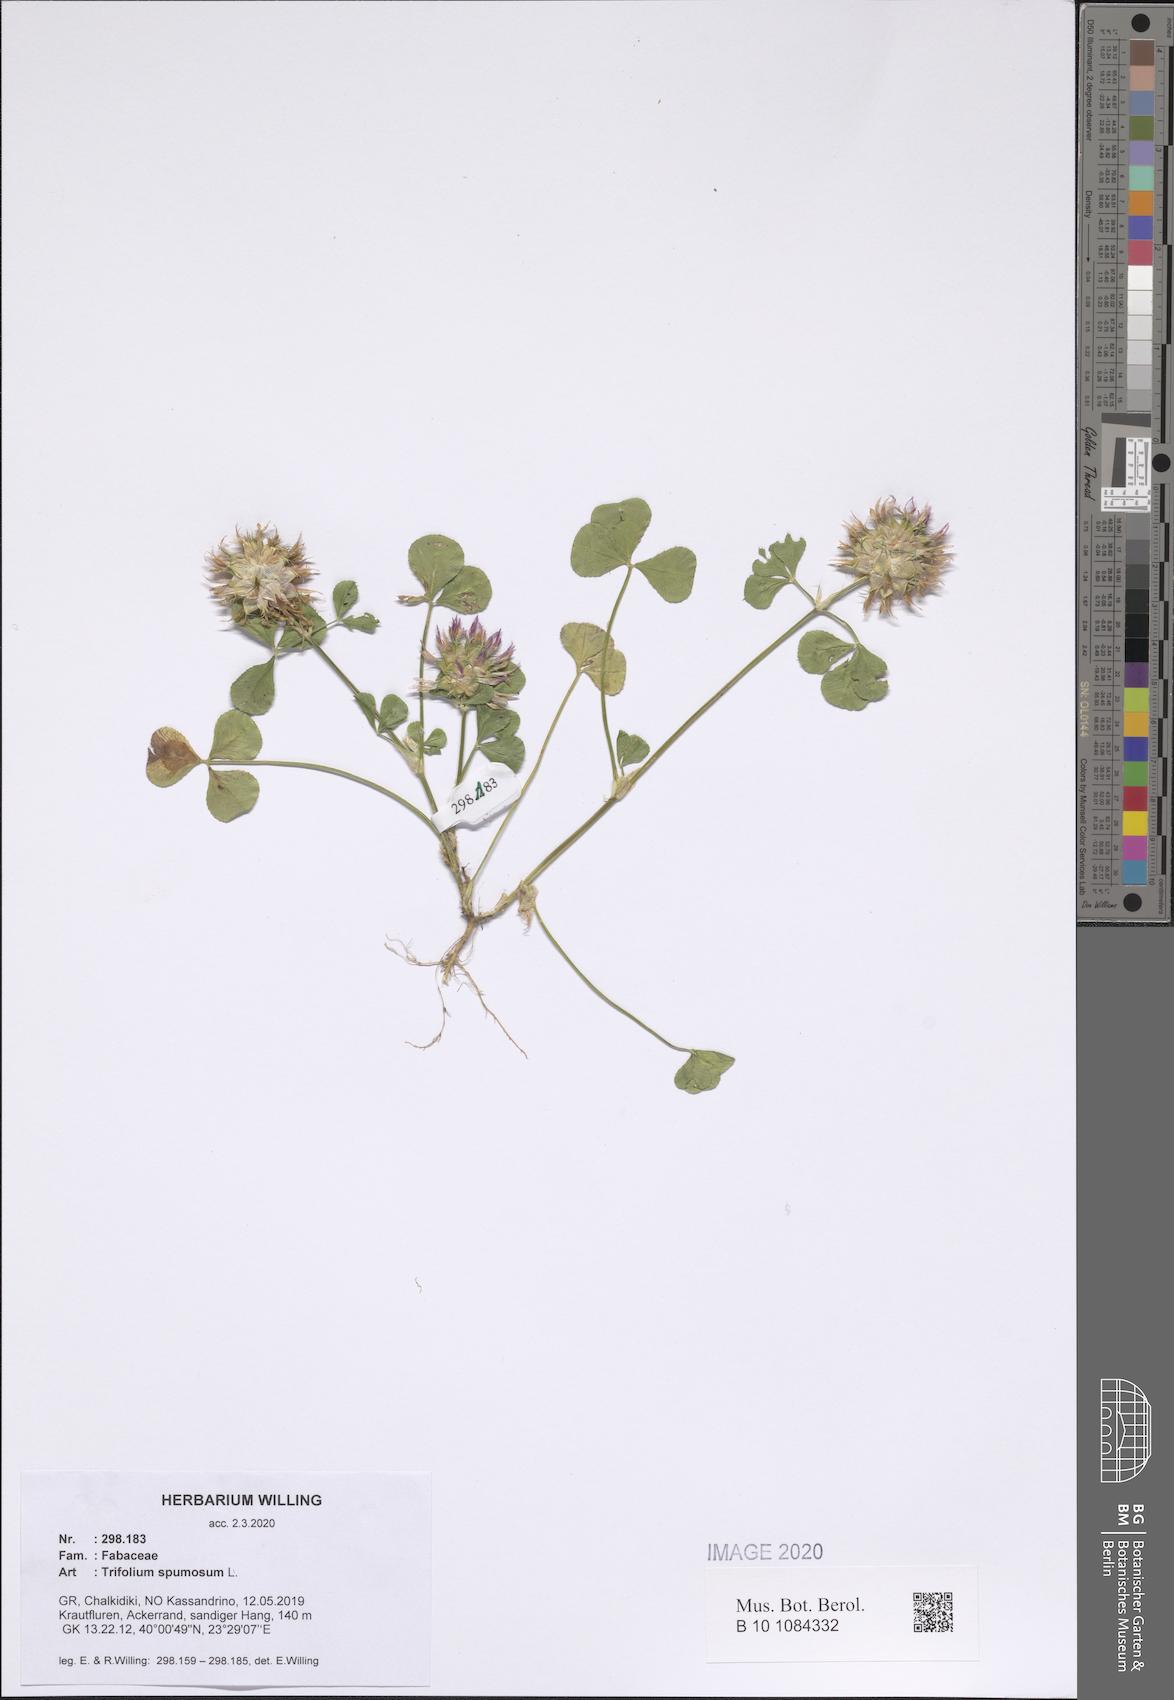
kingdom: Plantae
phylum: Tracheophyta
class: Magnoliopsida
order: Fabales
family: Fabaceae
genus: Trifolium
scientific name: Trifolium spumosum
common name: Mediterranean clover
